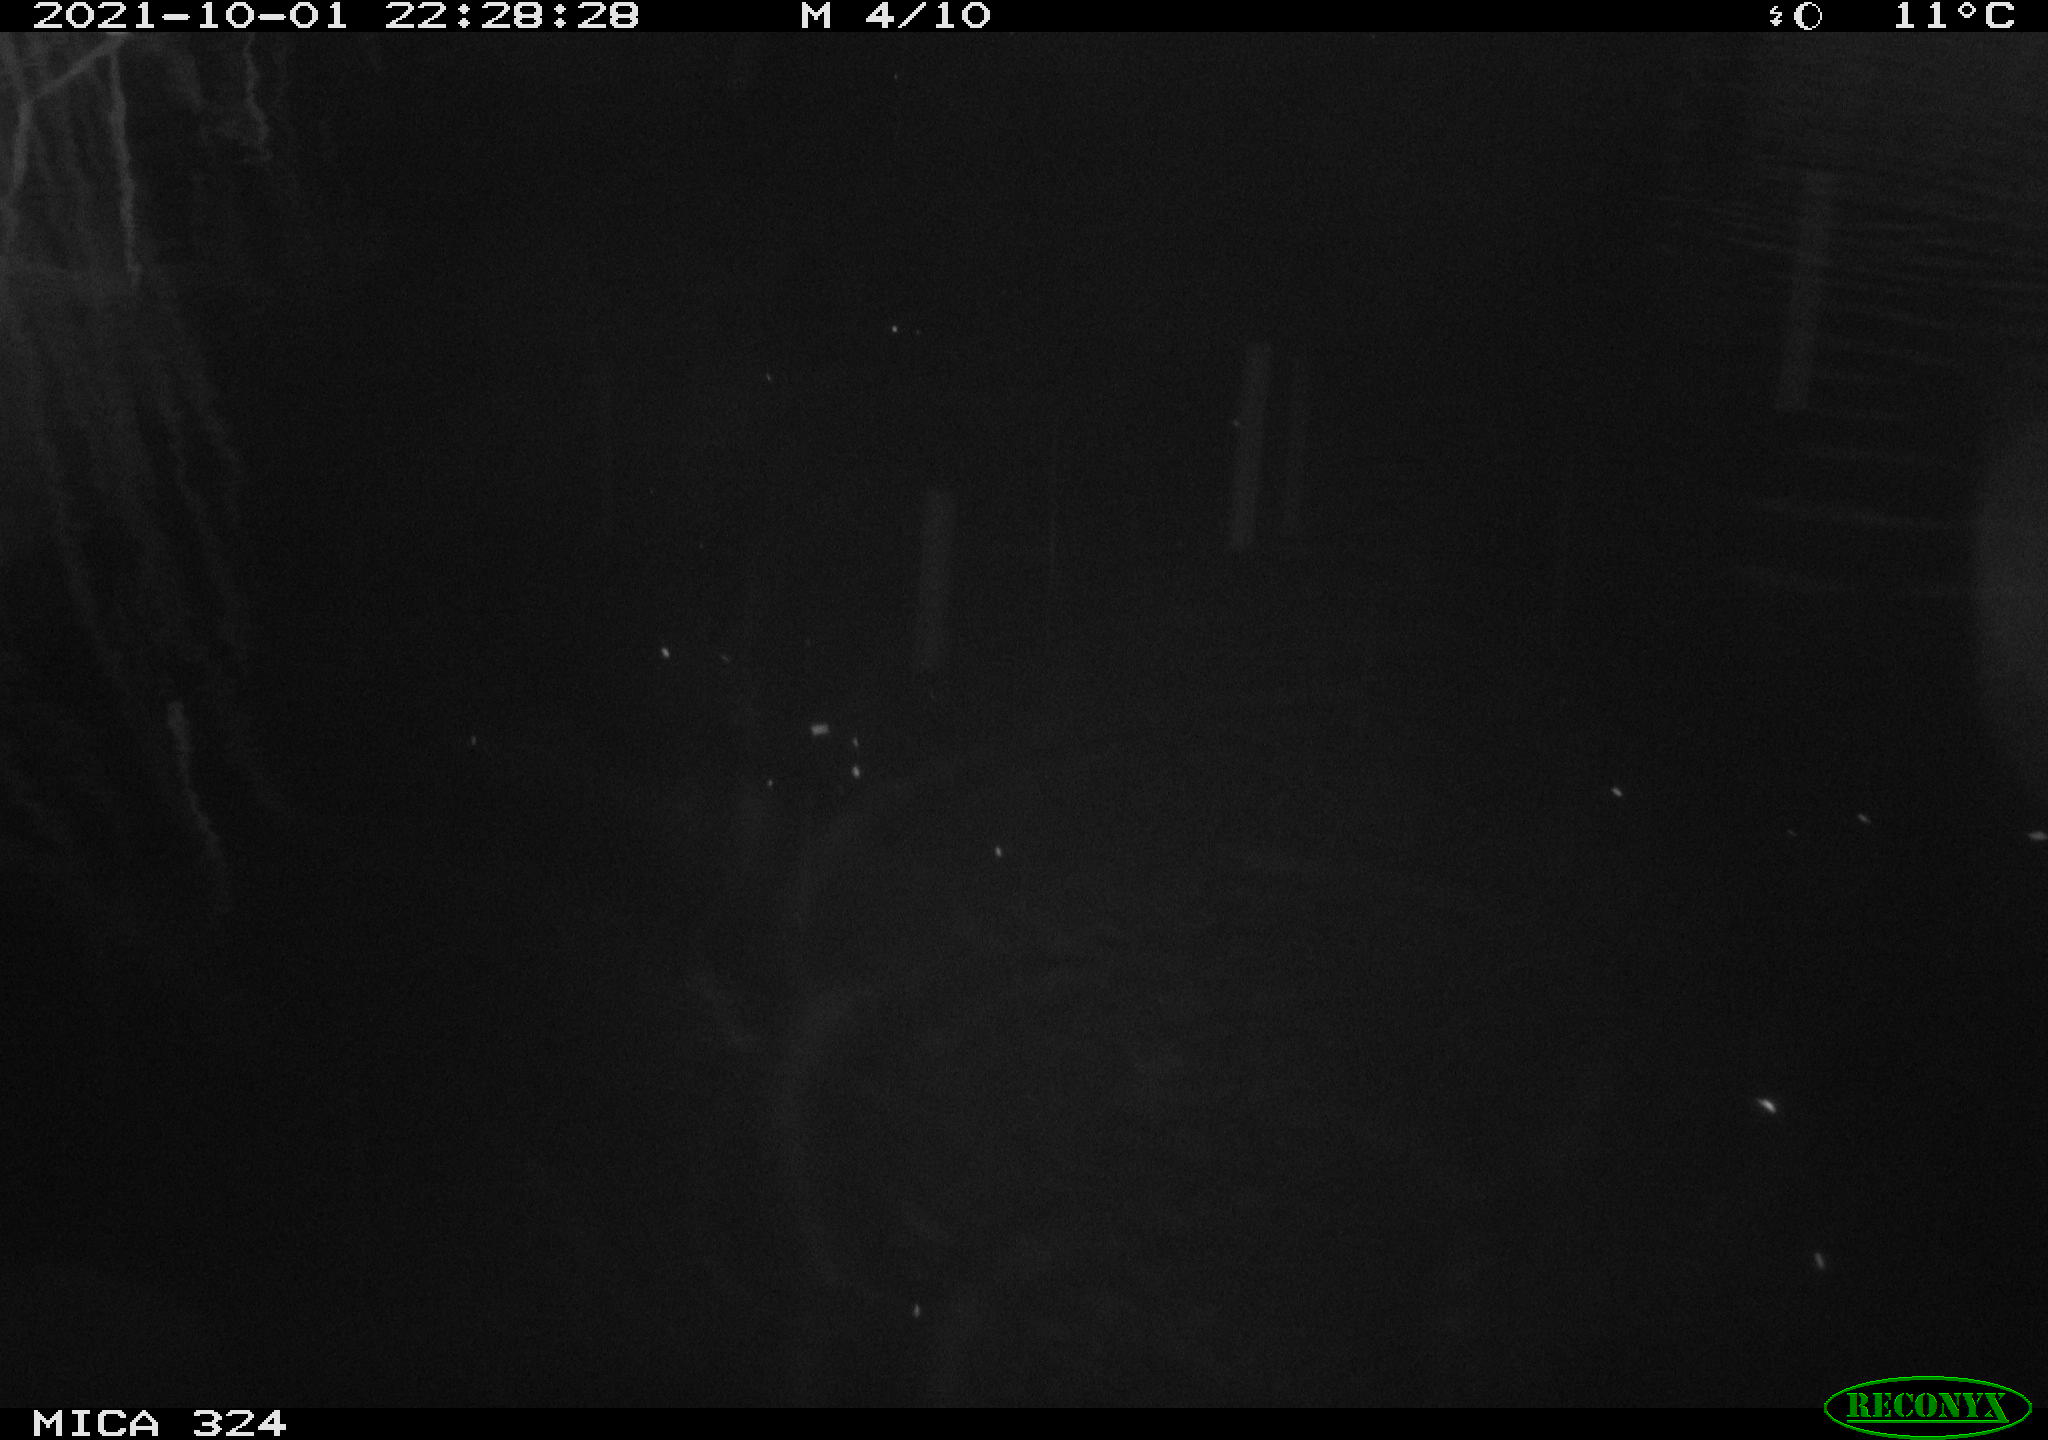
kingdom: Animalia
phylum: Chordata
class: Mammalia
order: Rodentia
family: Cricetidae
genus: Ondatra
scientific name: Ondatra zibethicus
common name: Muskrat
